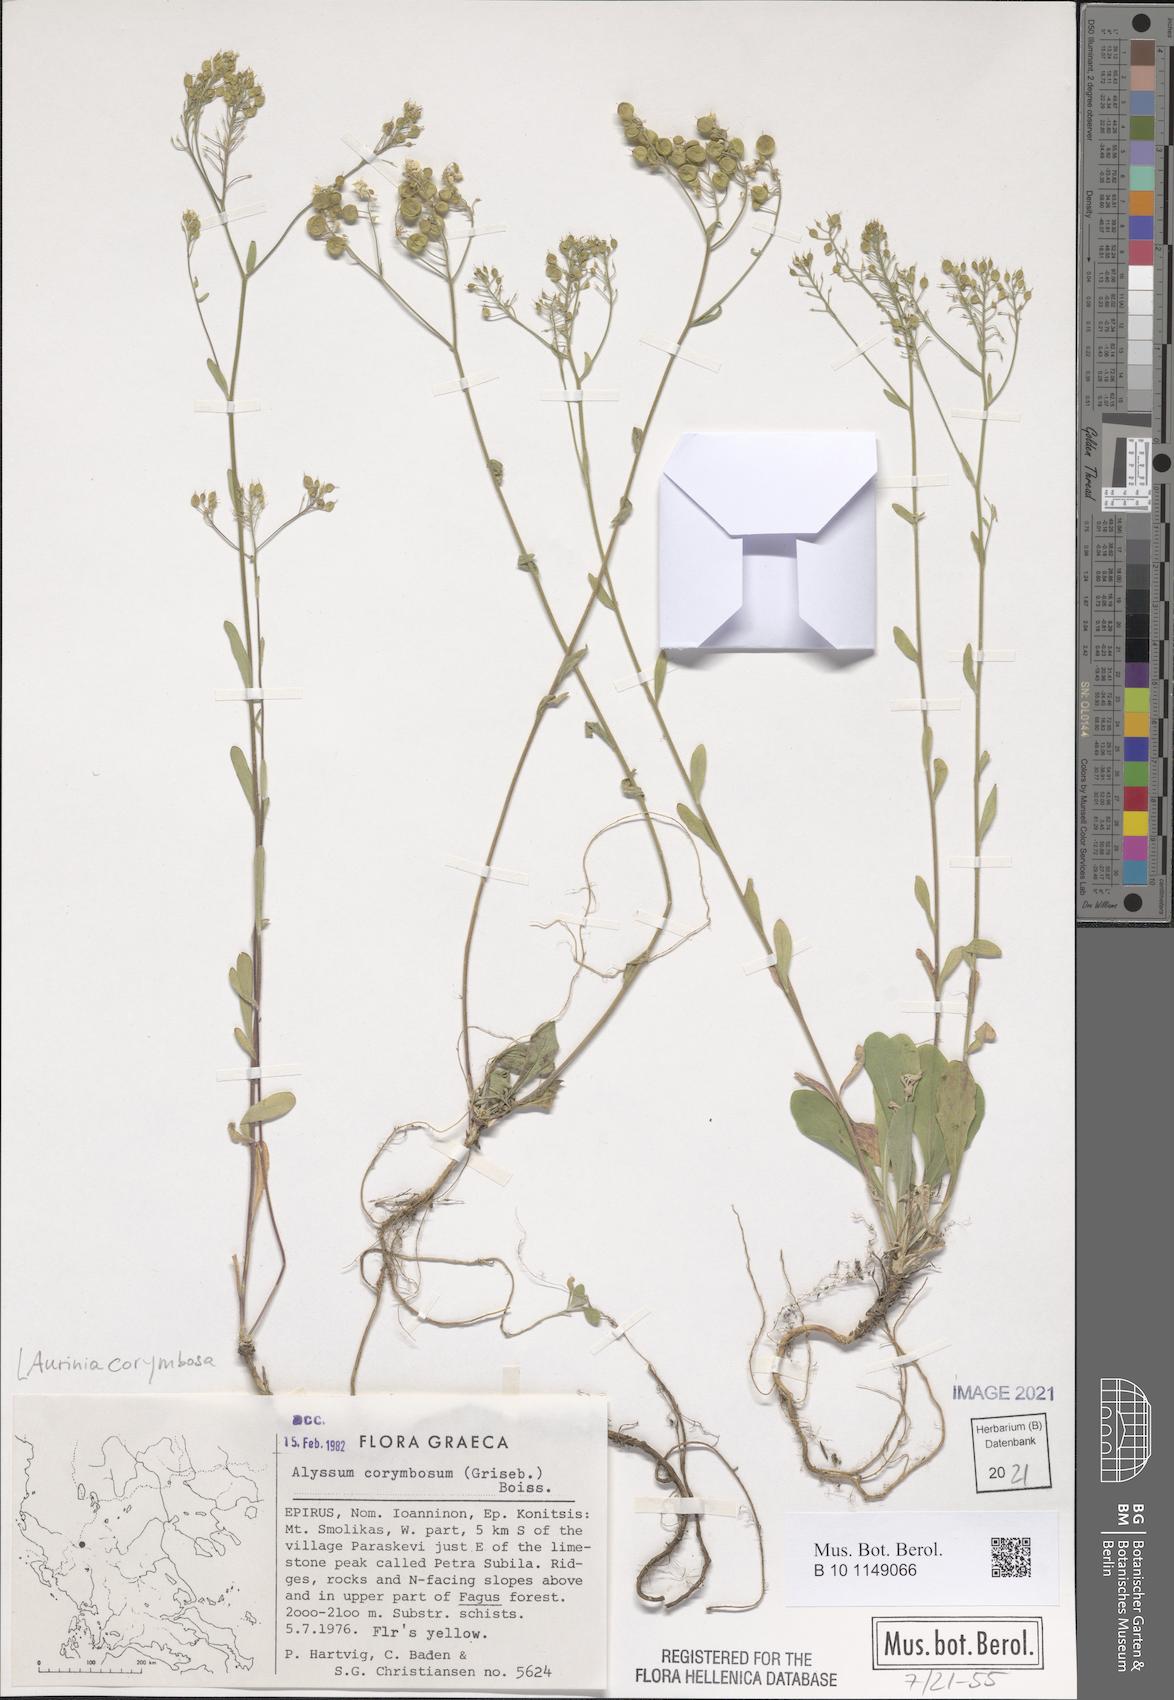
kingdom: Plantae
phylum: Tracheophyta
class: Magnoliopsida
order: Brassicales
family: Brassicaceae
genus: Aurinia
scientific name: Aurinia corymbosa
